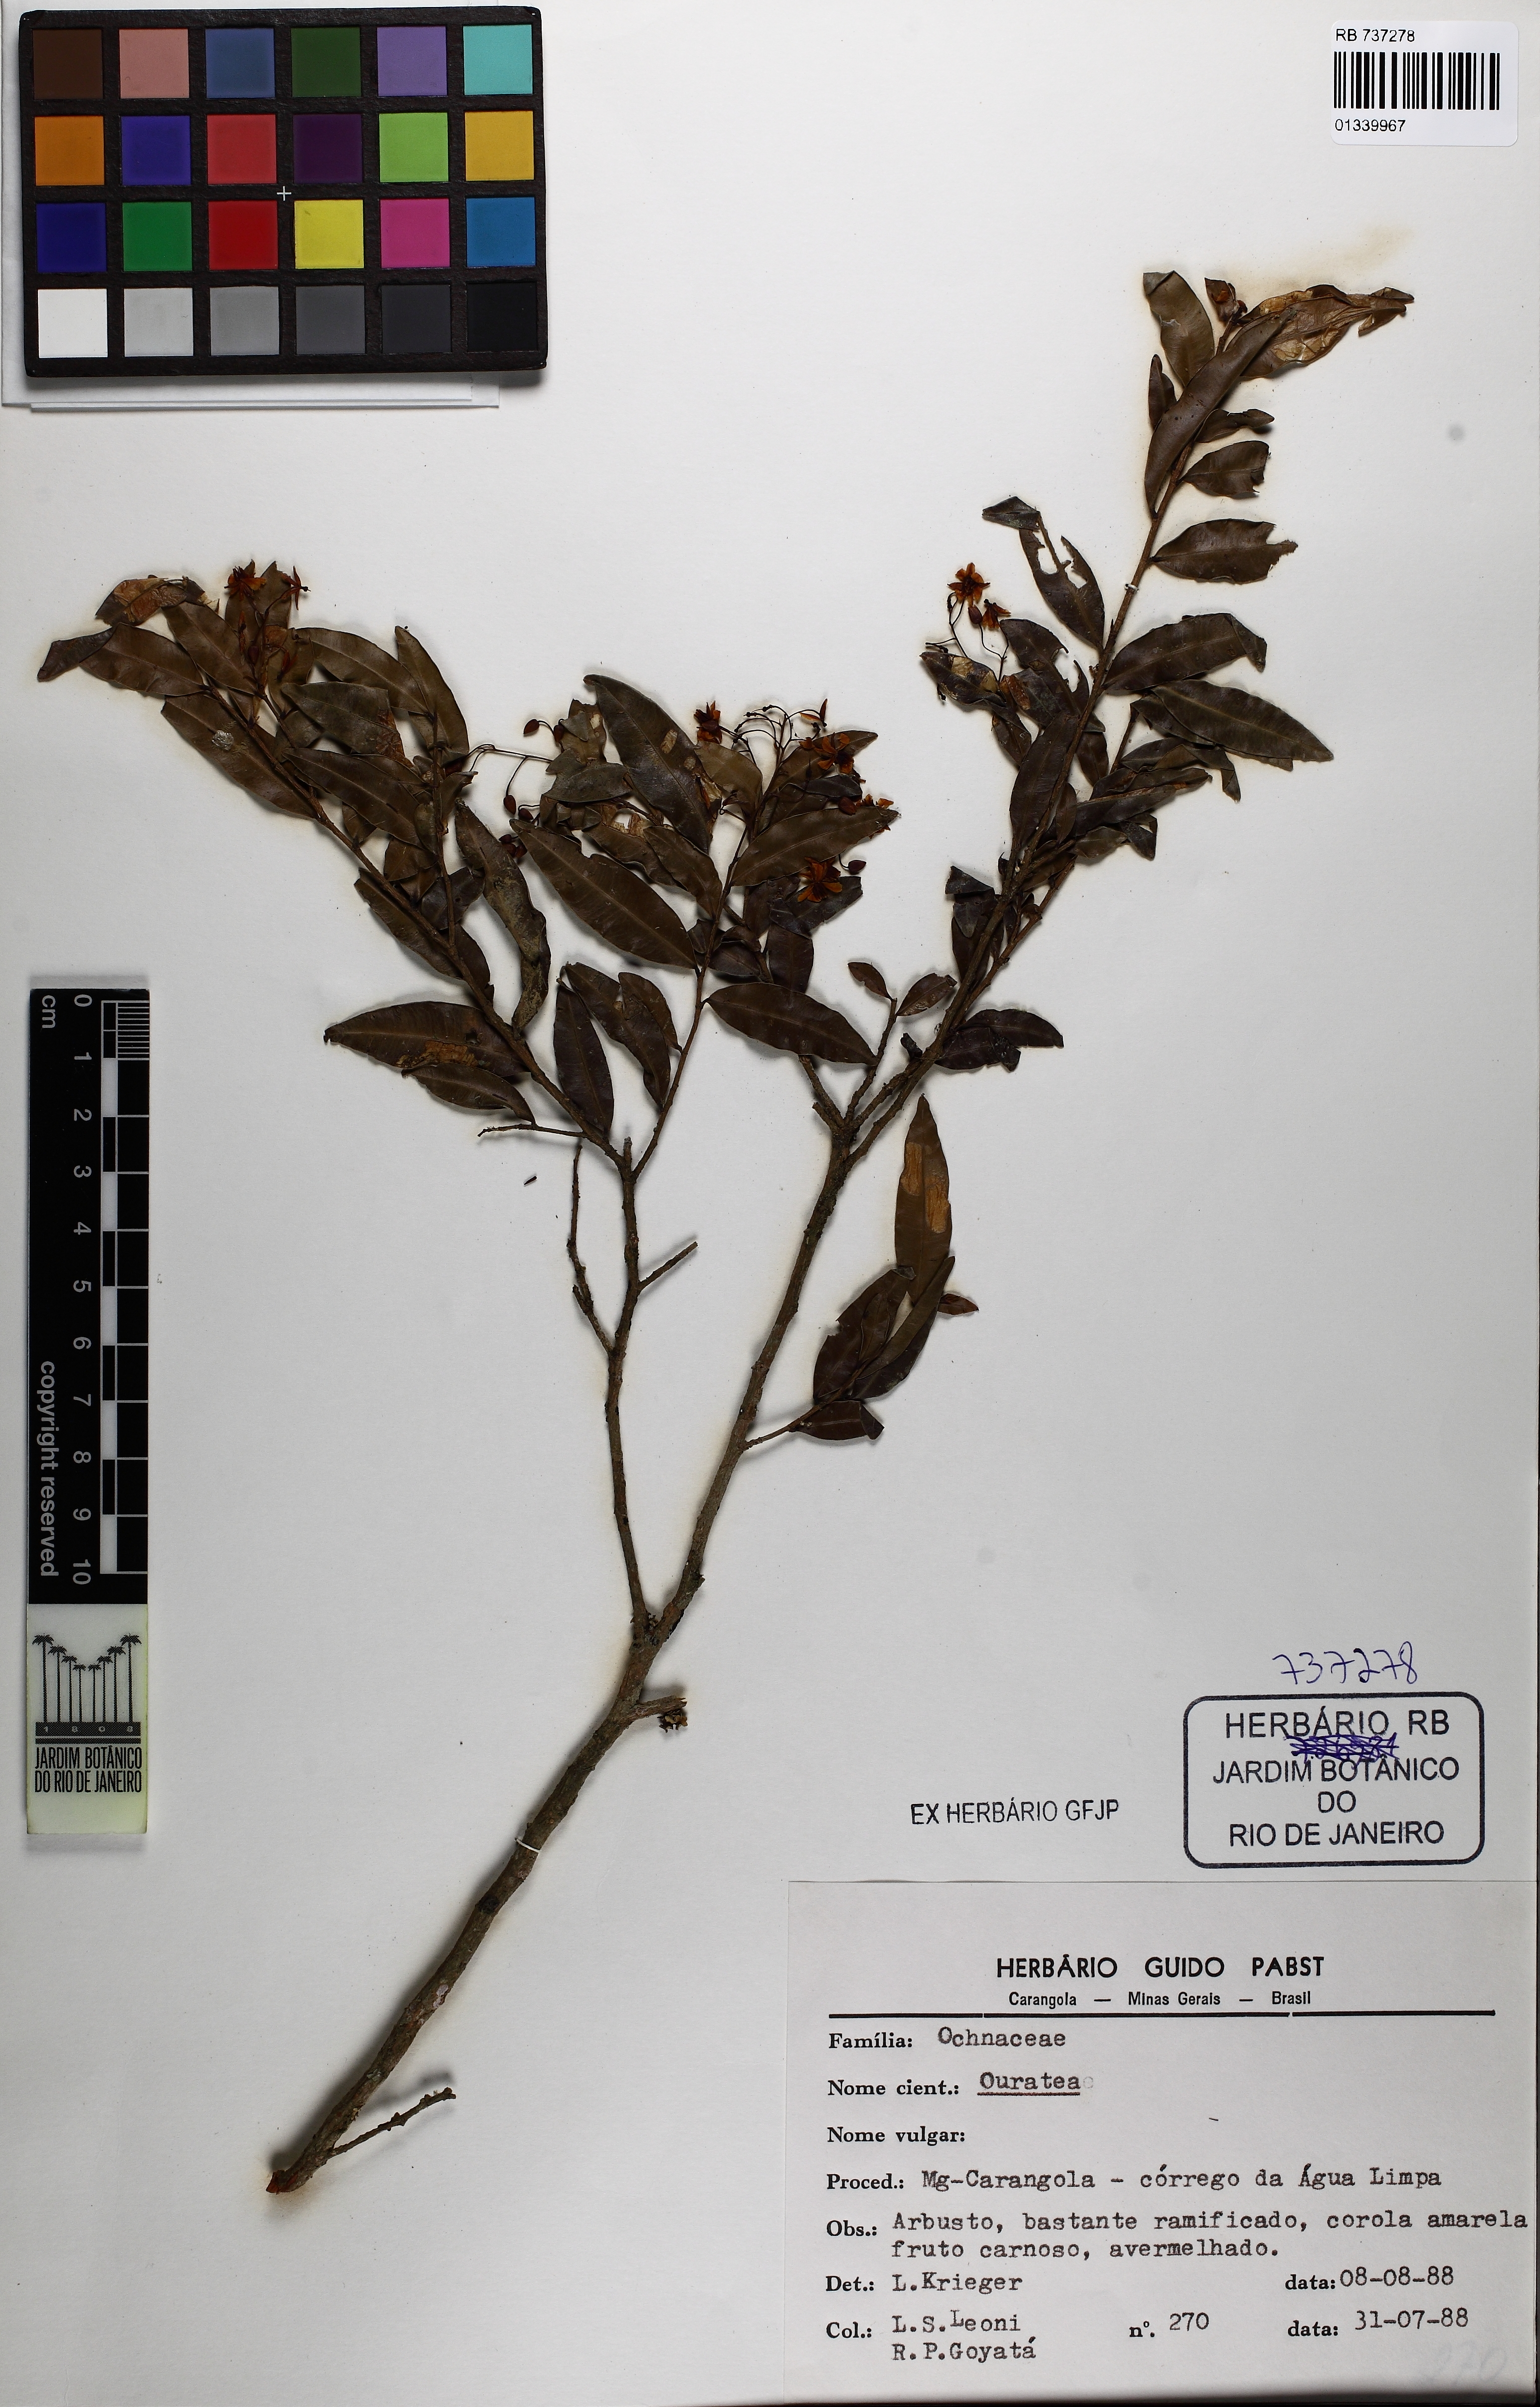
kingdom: Plantae
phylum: Tracheophyta
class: Magnoliopsida
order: Malpighiales
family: Ochnaceae
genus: Ouratea
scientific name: Ouratea
